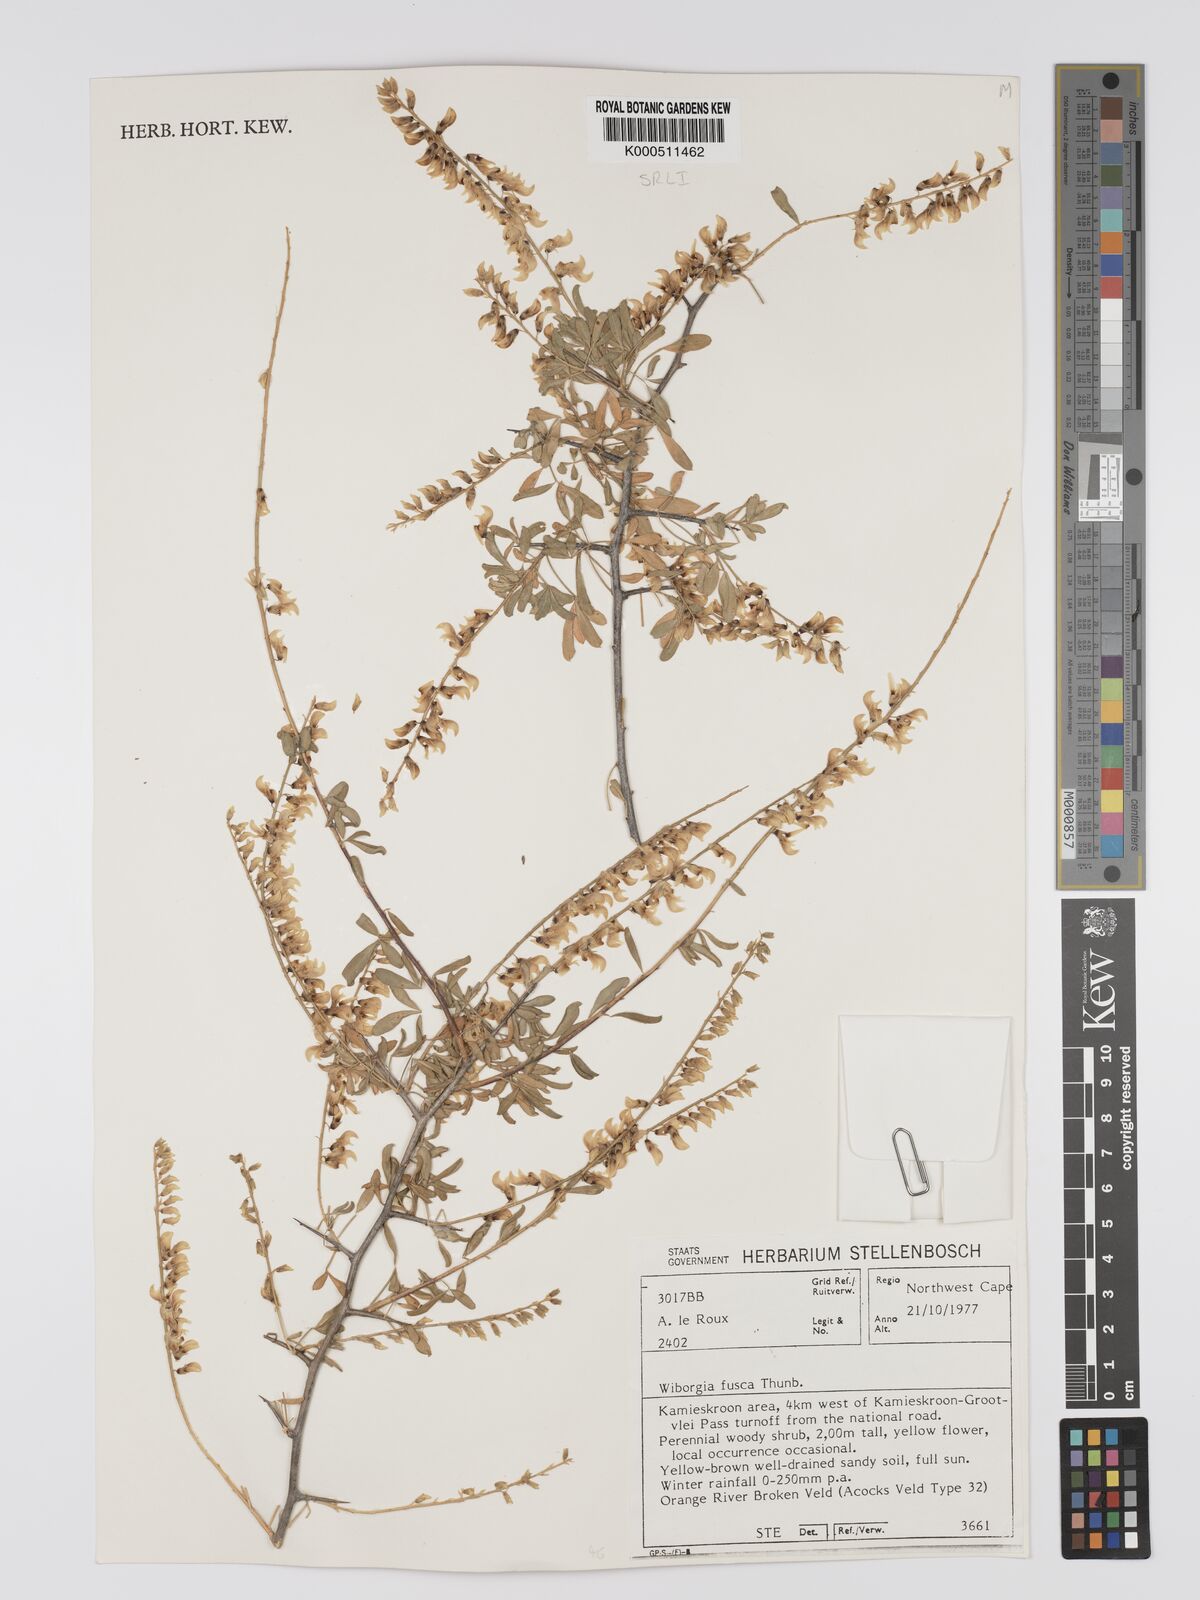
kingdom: Plantae
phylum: Tracheophyta
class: Magnoliopsida
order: Fabales
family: Fabaceae
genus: Wiborgia
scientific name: Wiborgia fusca
